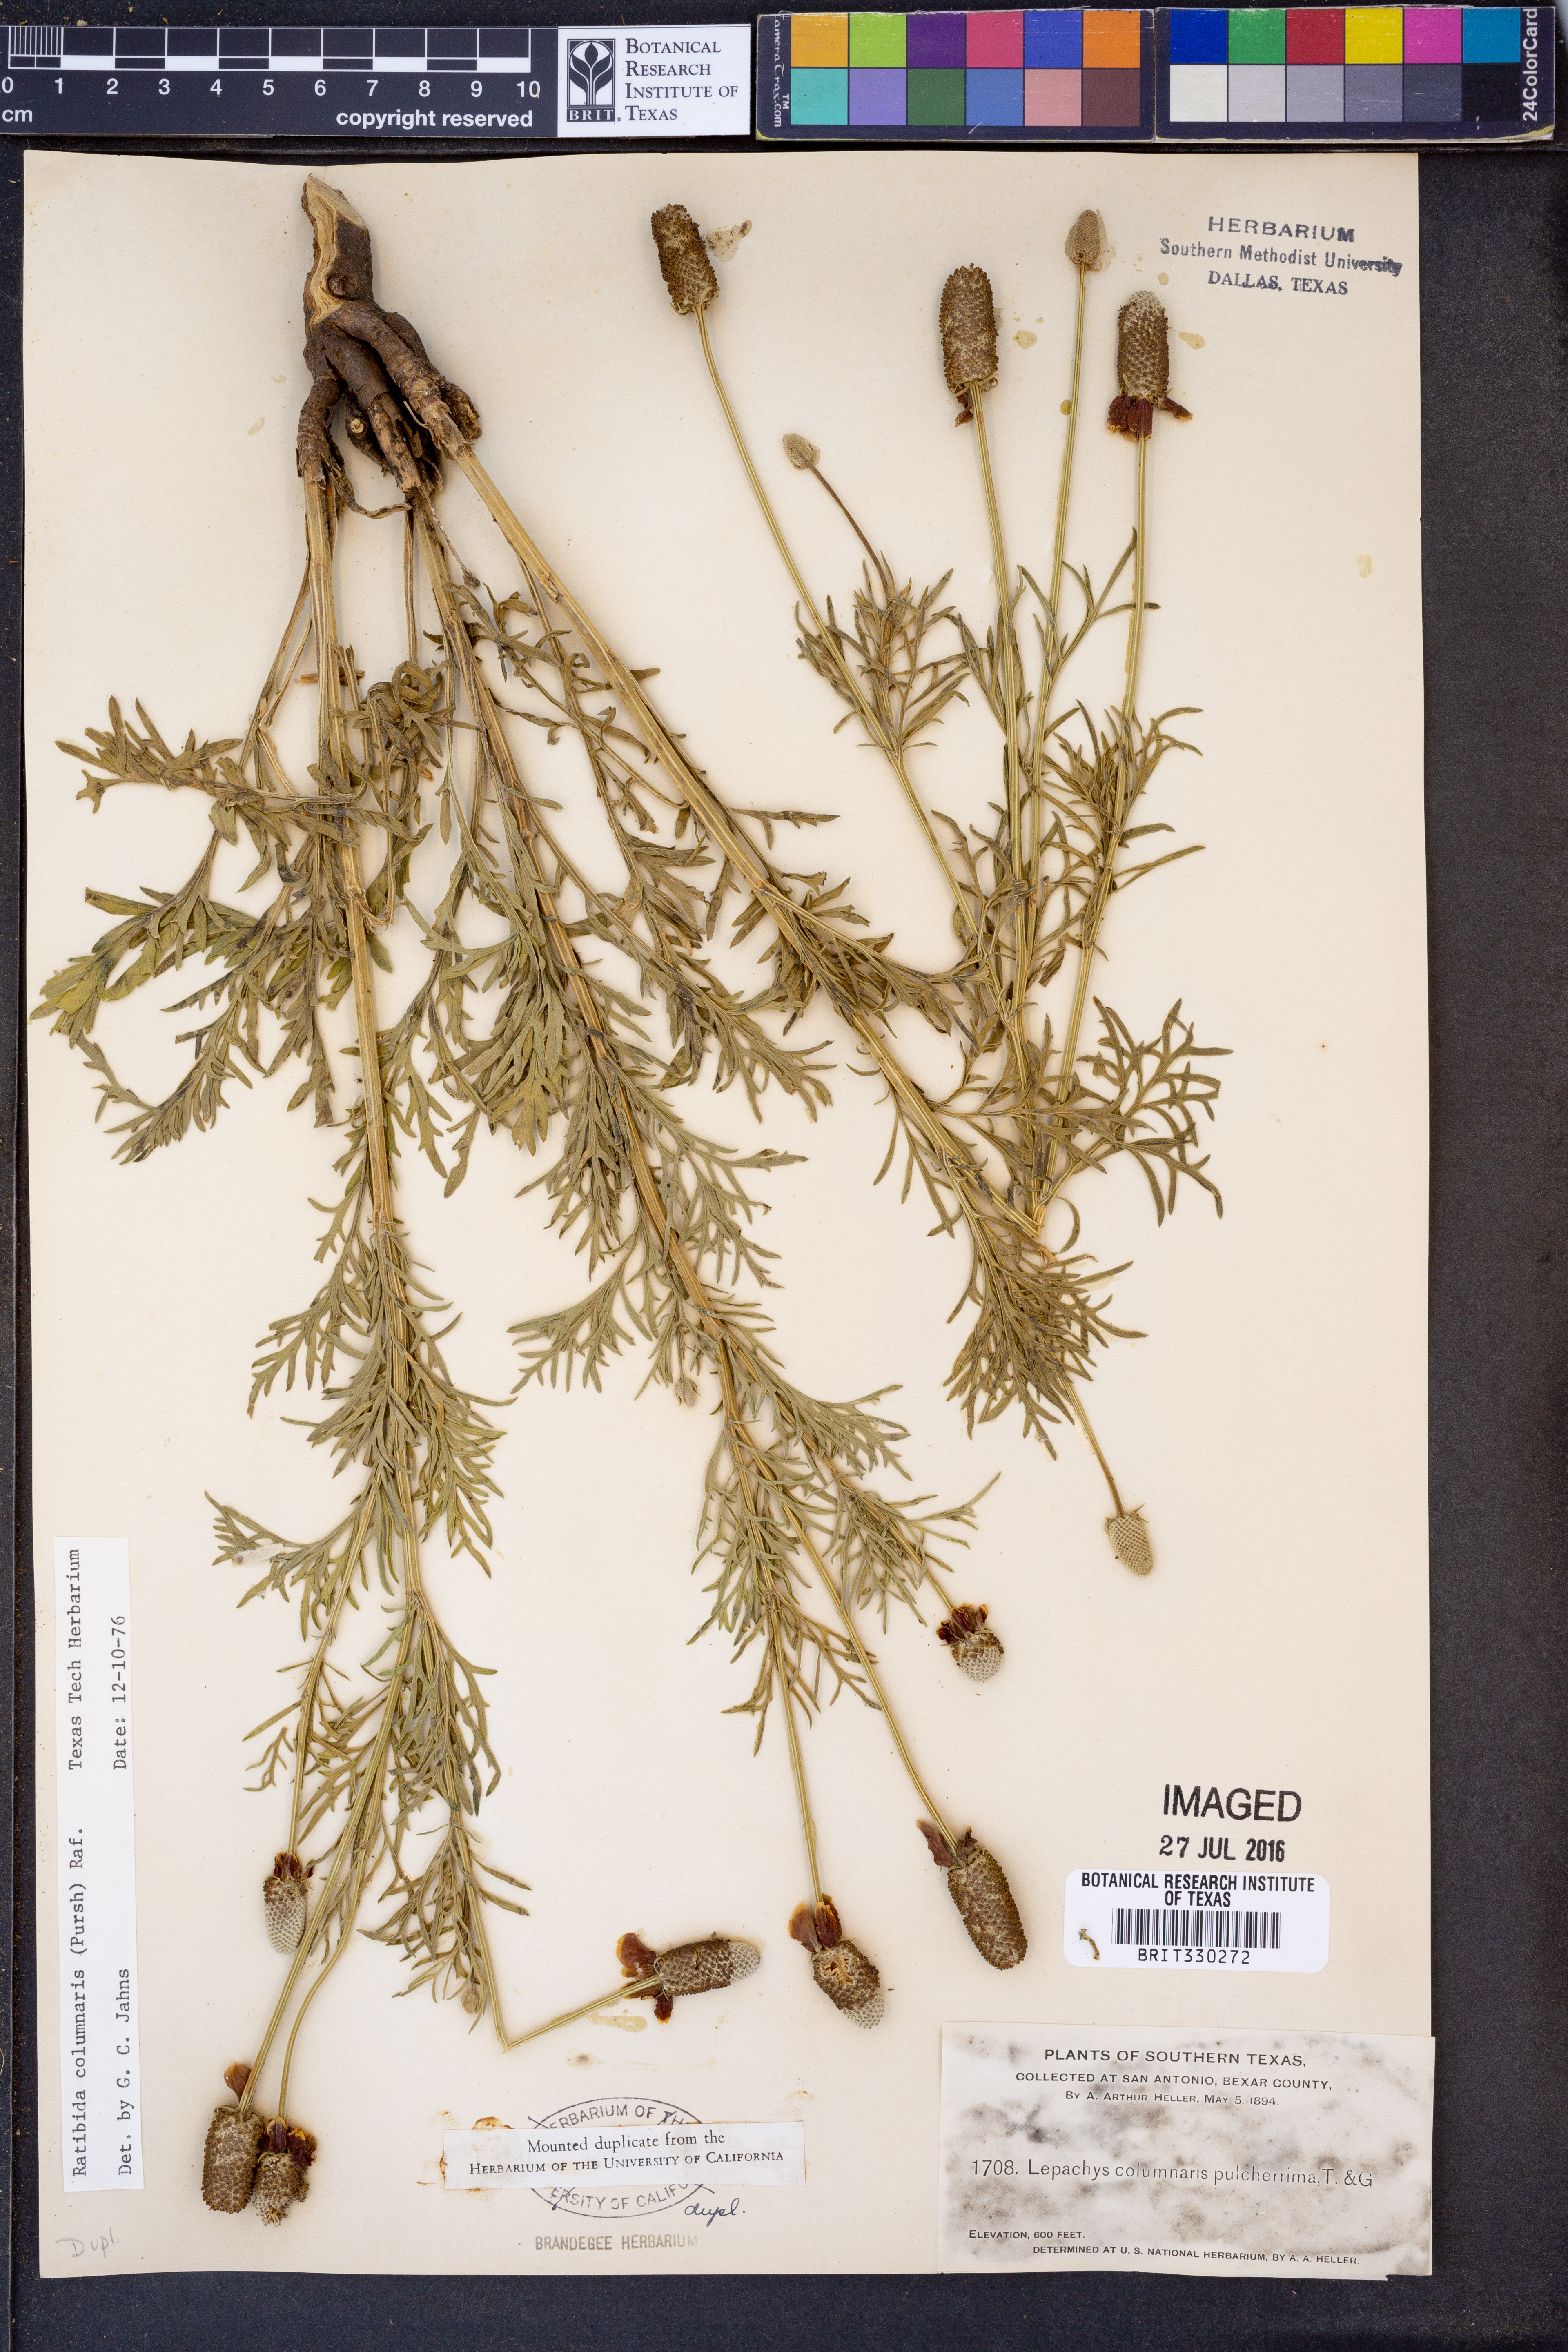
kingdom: Plantae
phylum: Tracheophyta
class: Magnoliopsida
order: Asterales
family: Asteraceae
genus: Ratibida
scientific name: Ratibida columnifera
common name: Prairie coneflower
